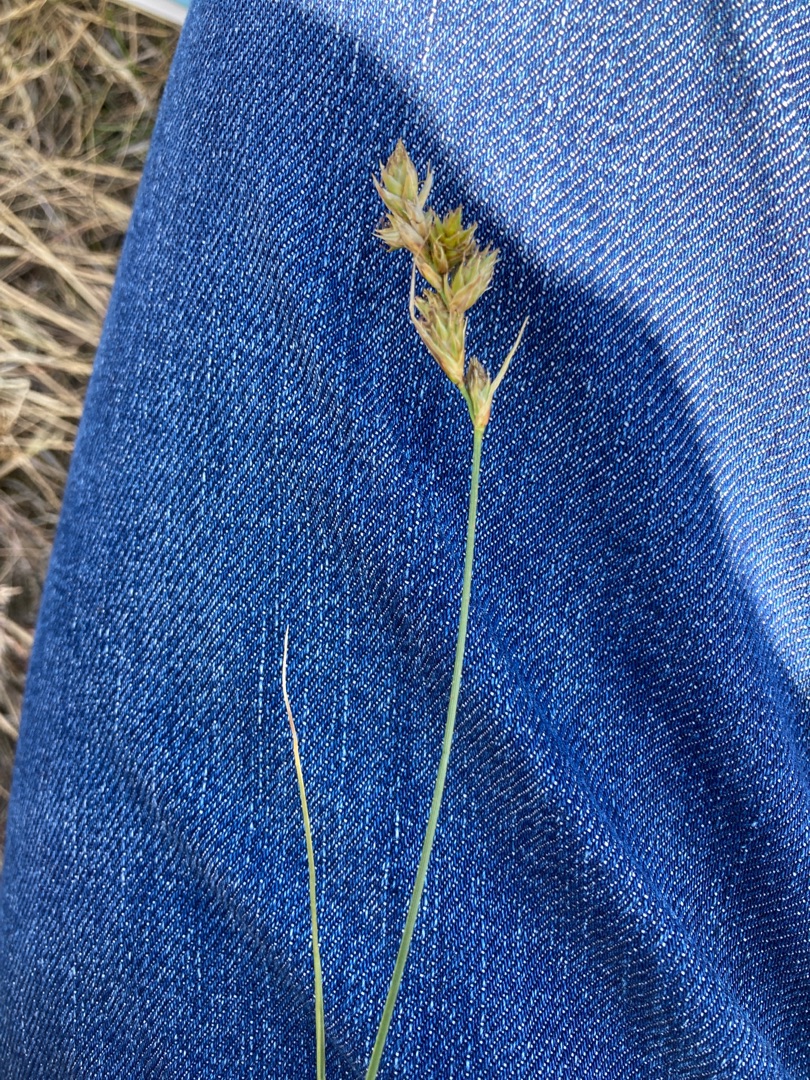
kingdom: Plantae
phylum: Tracheophyta
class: Liliopsida
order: Poales
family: Cyperaceae
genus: Carex
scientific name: Carex arenaria
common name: Sand-star
